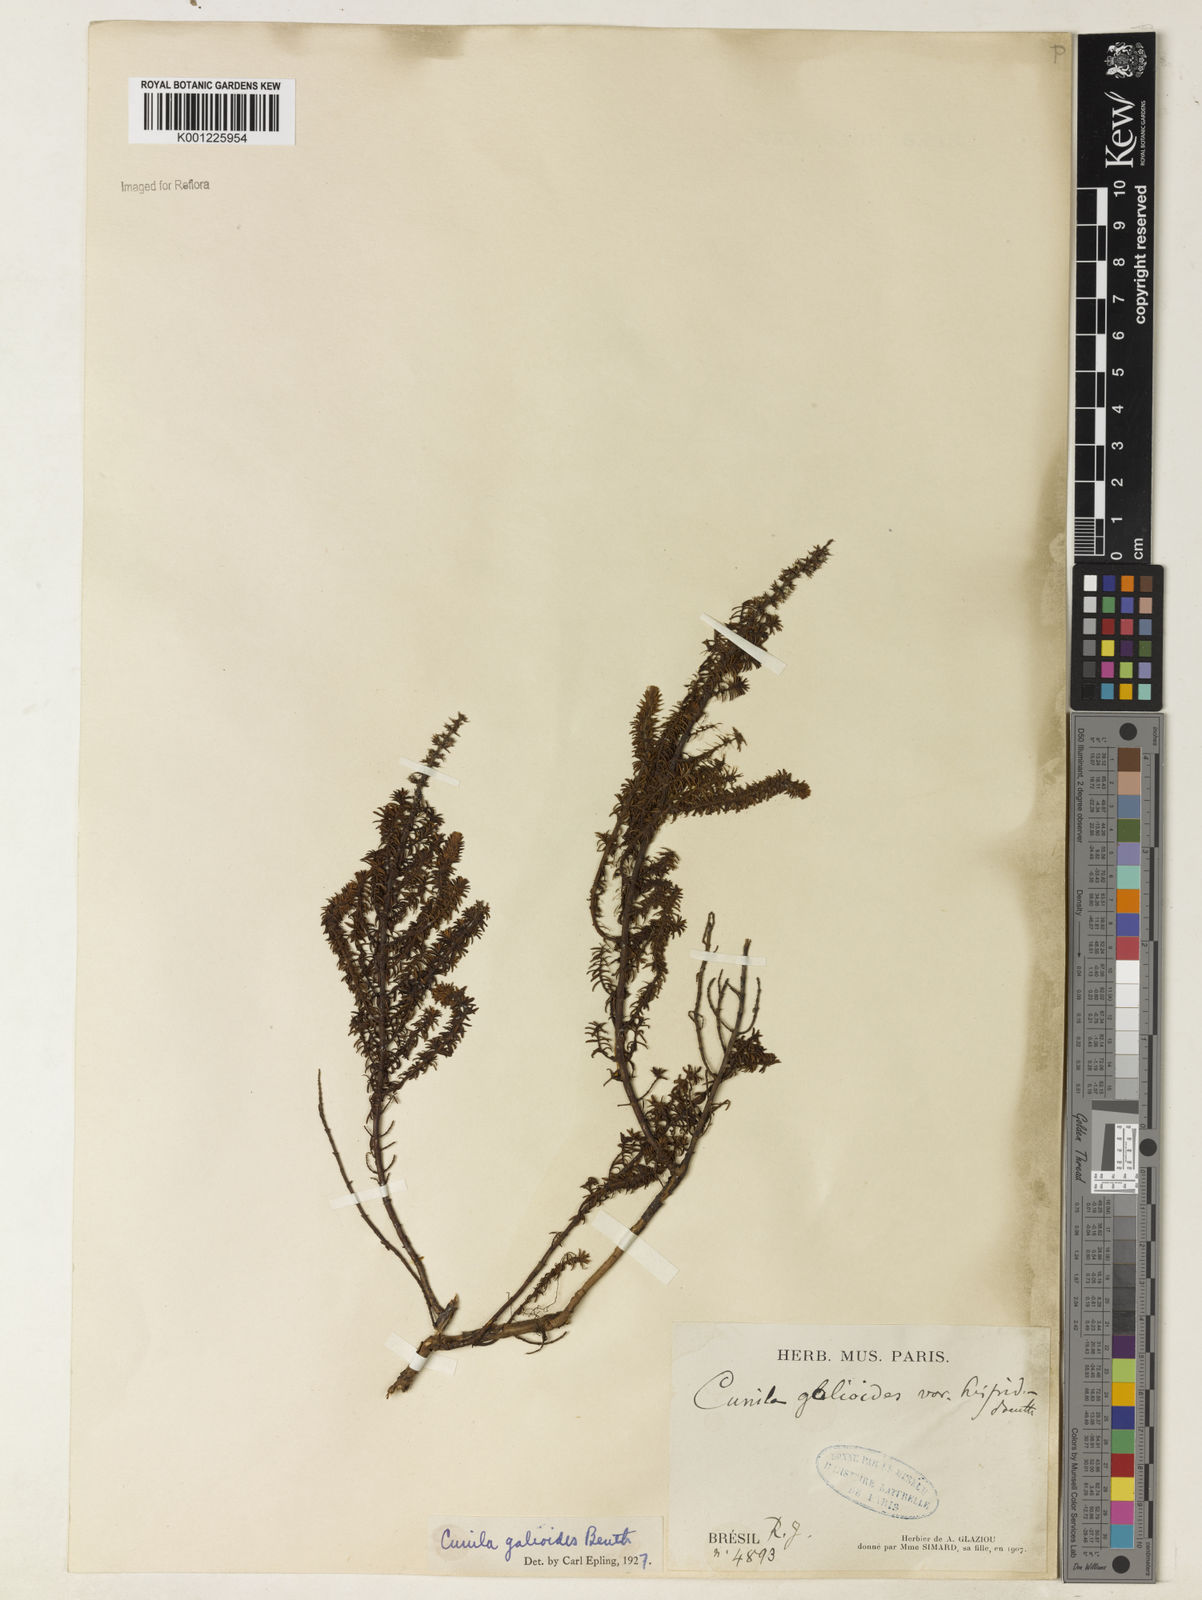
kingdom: Plantae
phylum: Tracheophyta
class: Magnoliopsida
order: Lamiales
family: Lamiaceae
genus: Cunila
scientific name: Cunila galioides
